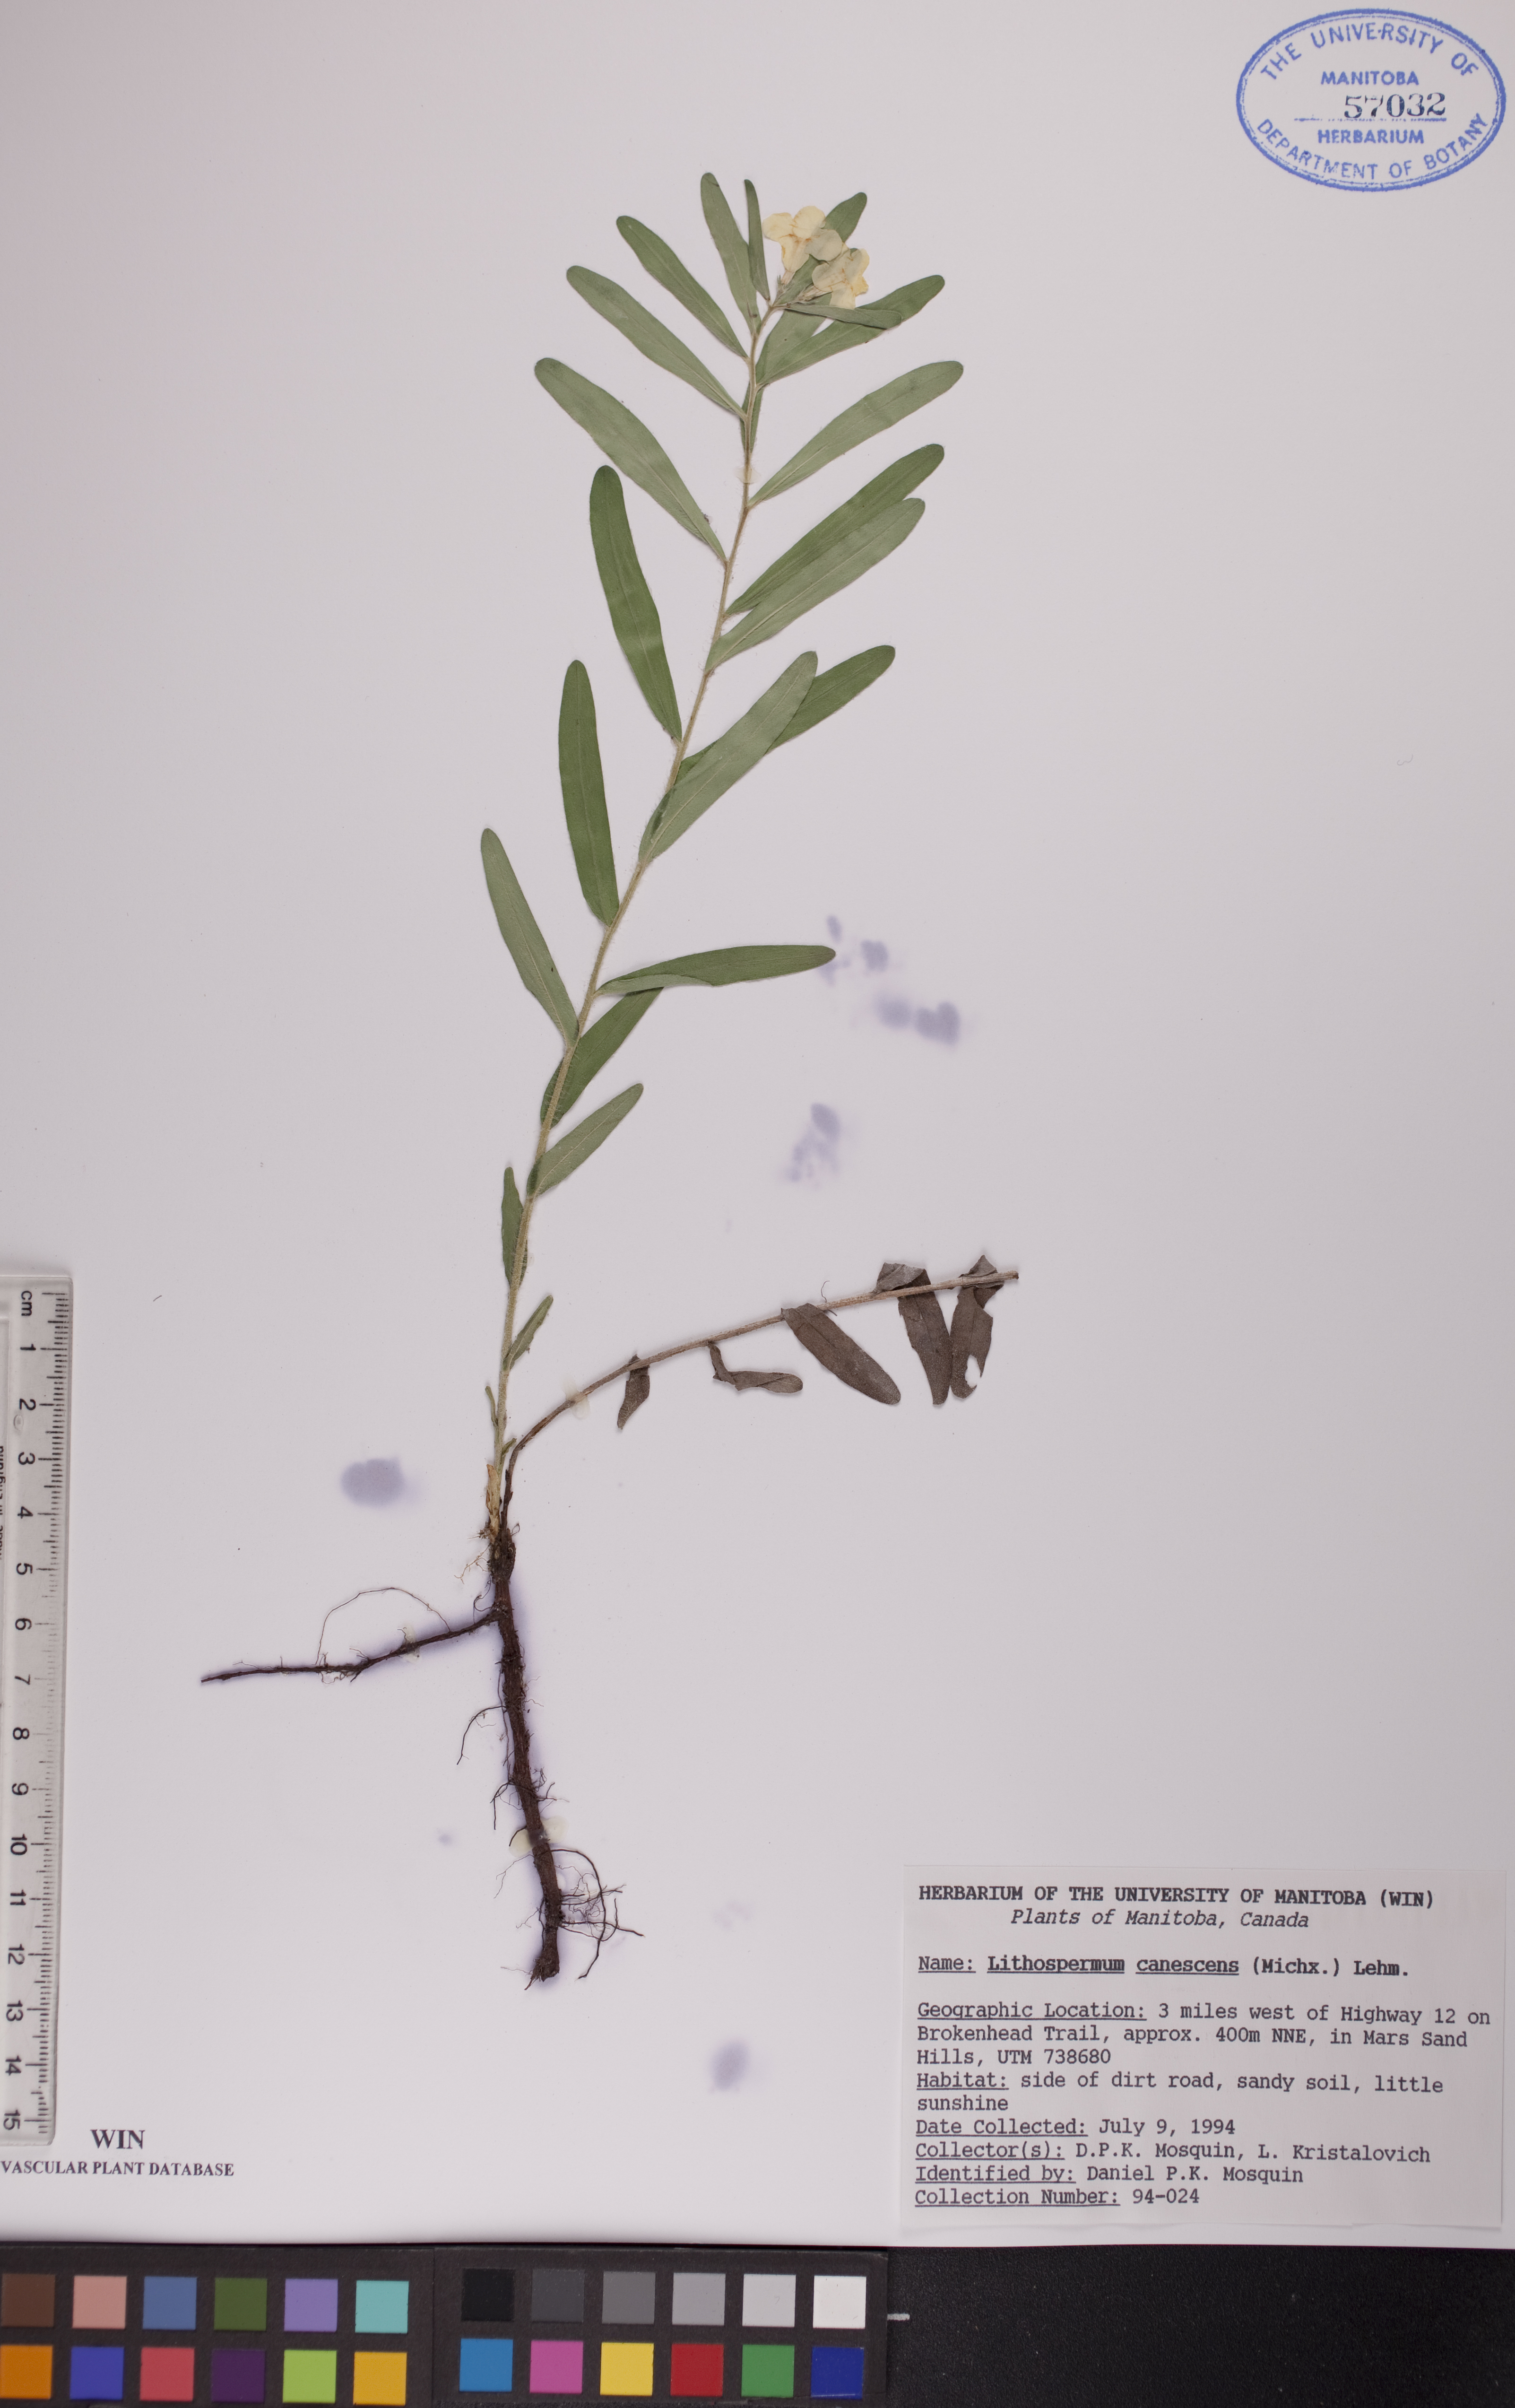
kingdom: Plantae
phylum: Tracheophyta
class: Magnoliopsida
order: Boraginales
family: Boraginaceae
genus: Lithospermum
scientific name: Lithospermum canescens
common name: Hoary puccoon
